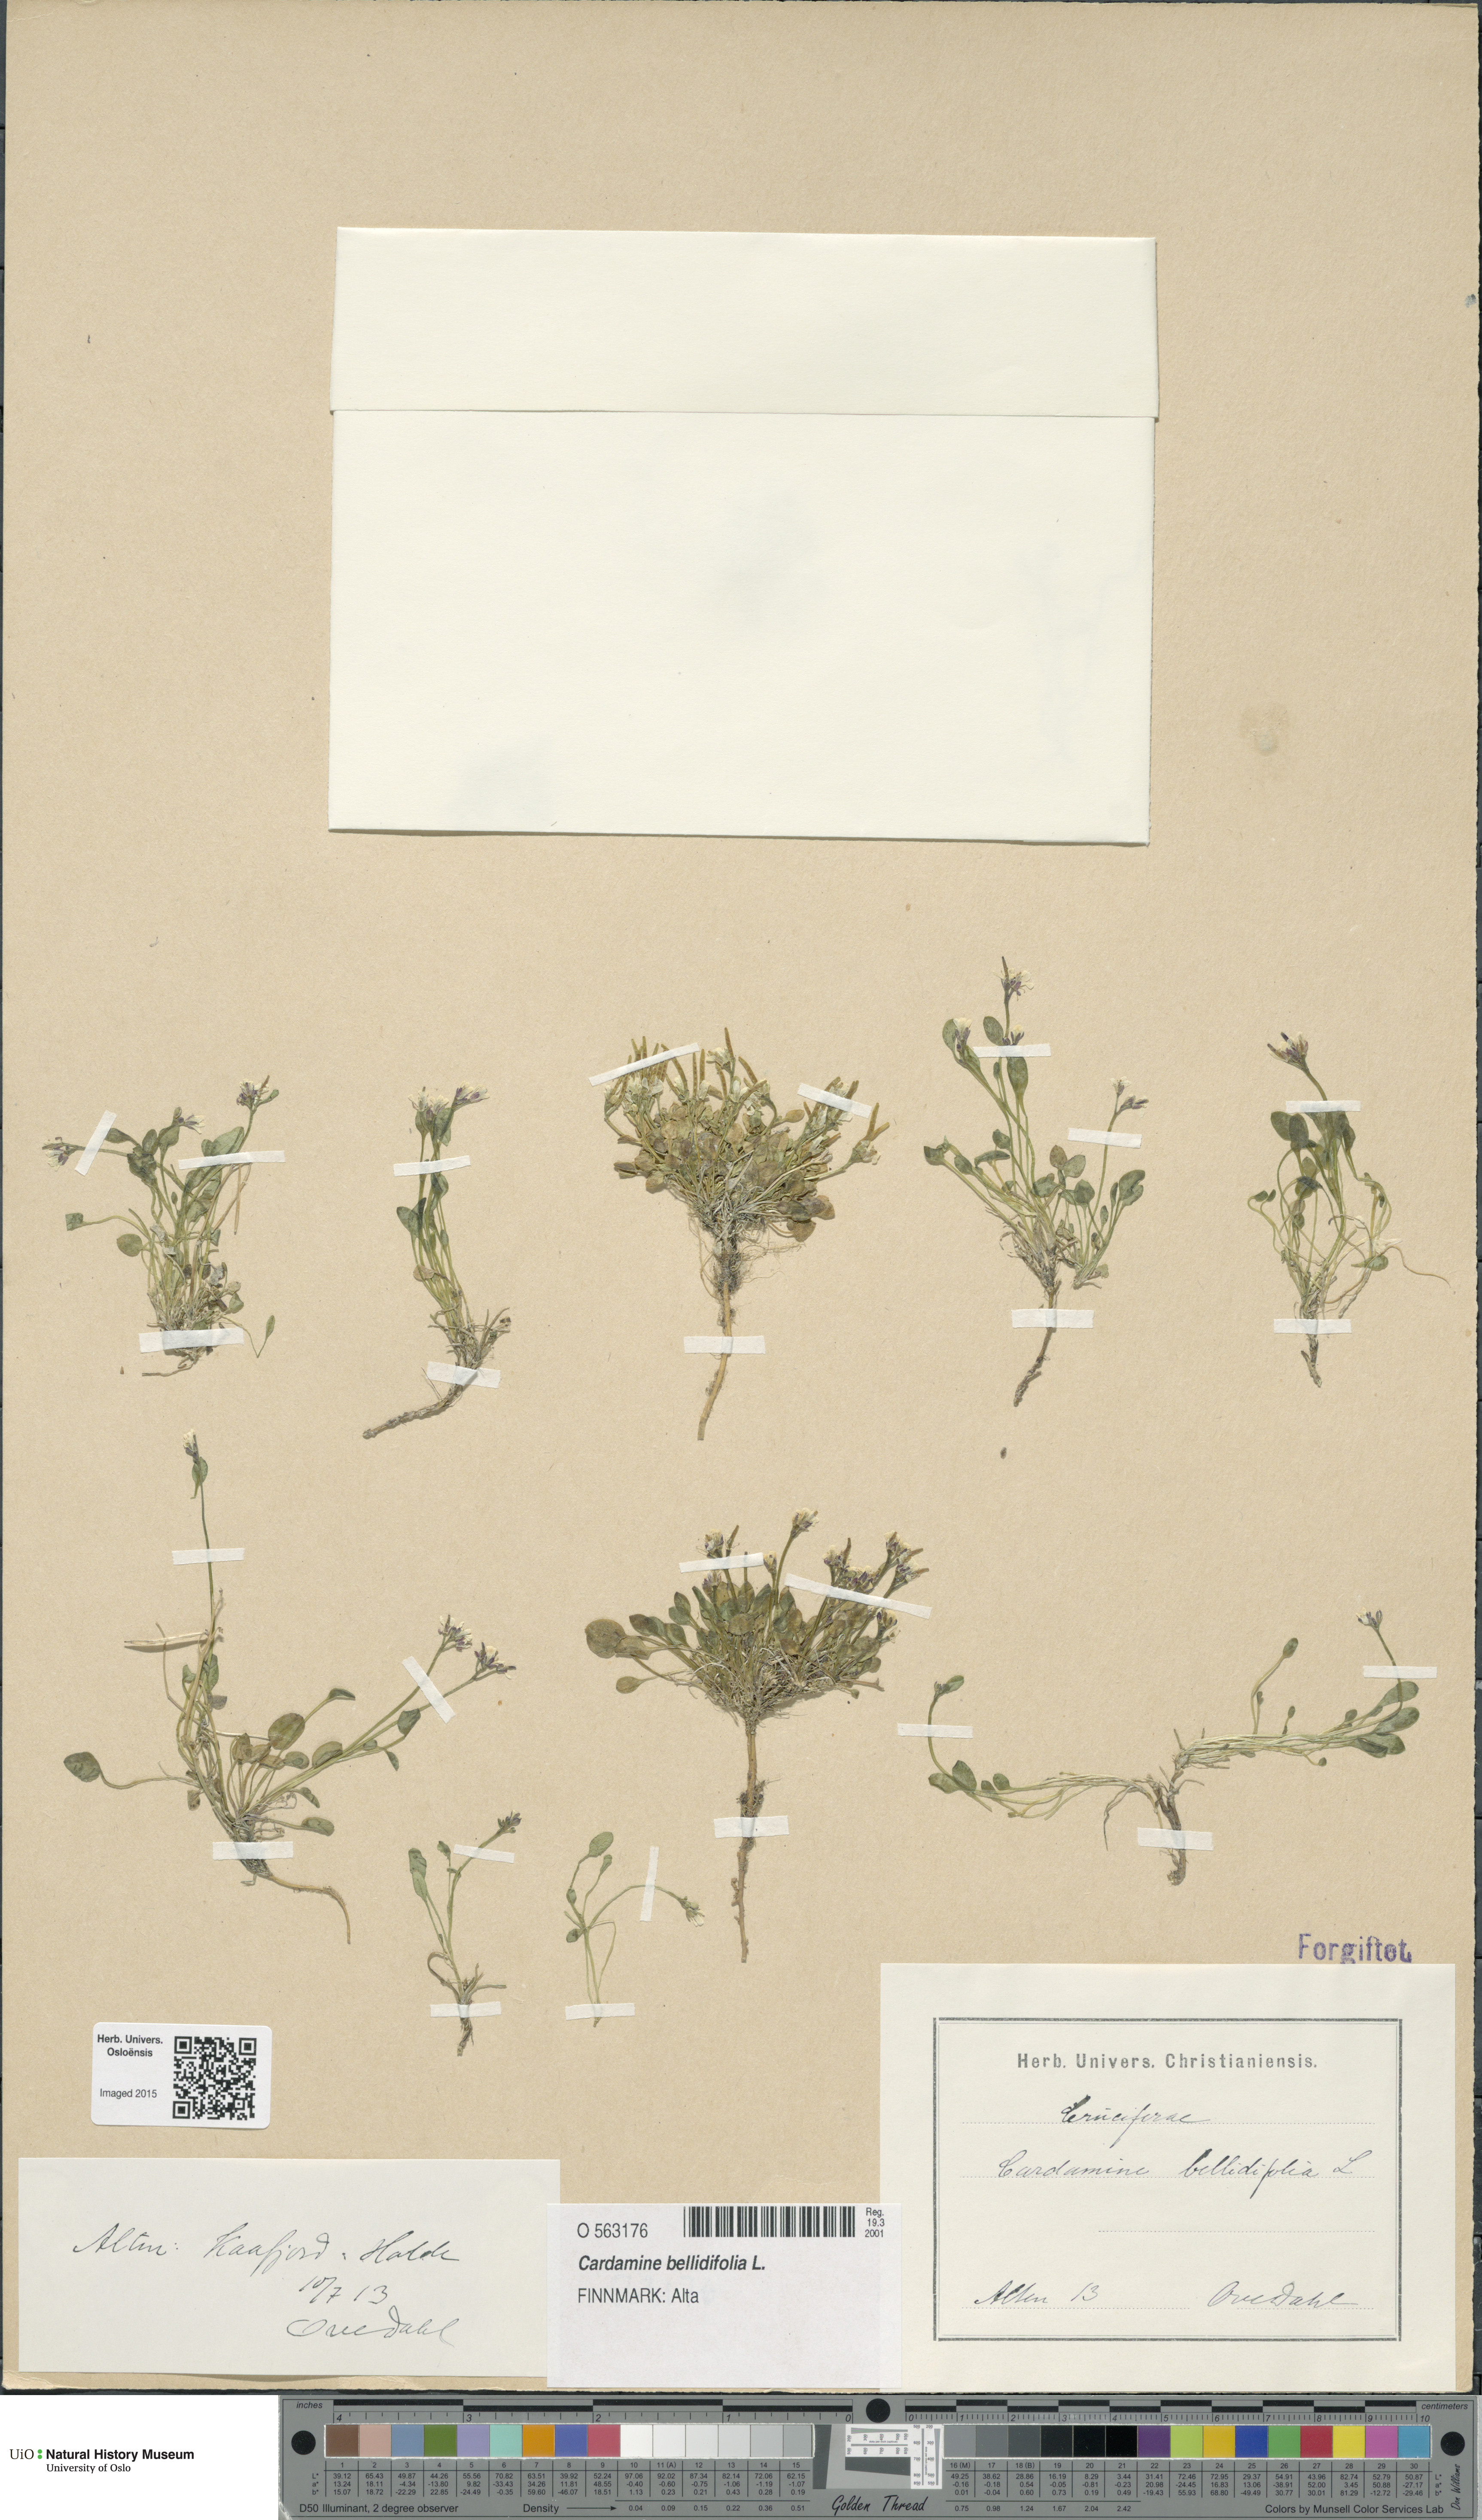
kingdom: Plantae
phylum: Tracheophyta
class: Magnoliopsida
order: Brassicales
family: Brassicaceae
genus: Cardamine
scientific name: Cardamine bellidifolia
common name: Alpine bittercress
